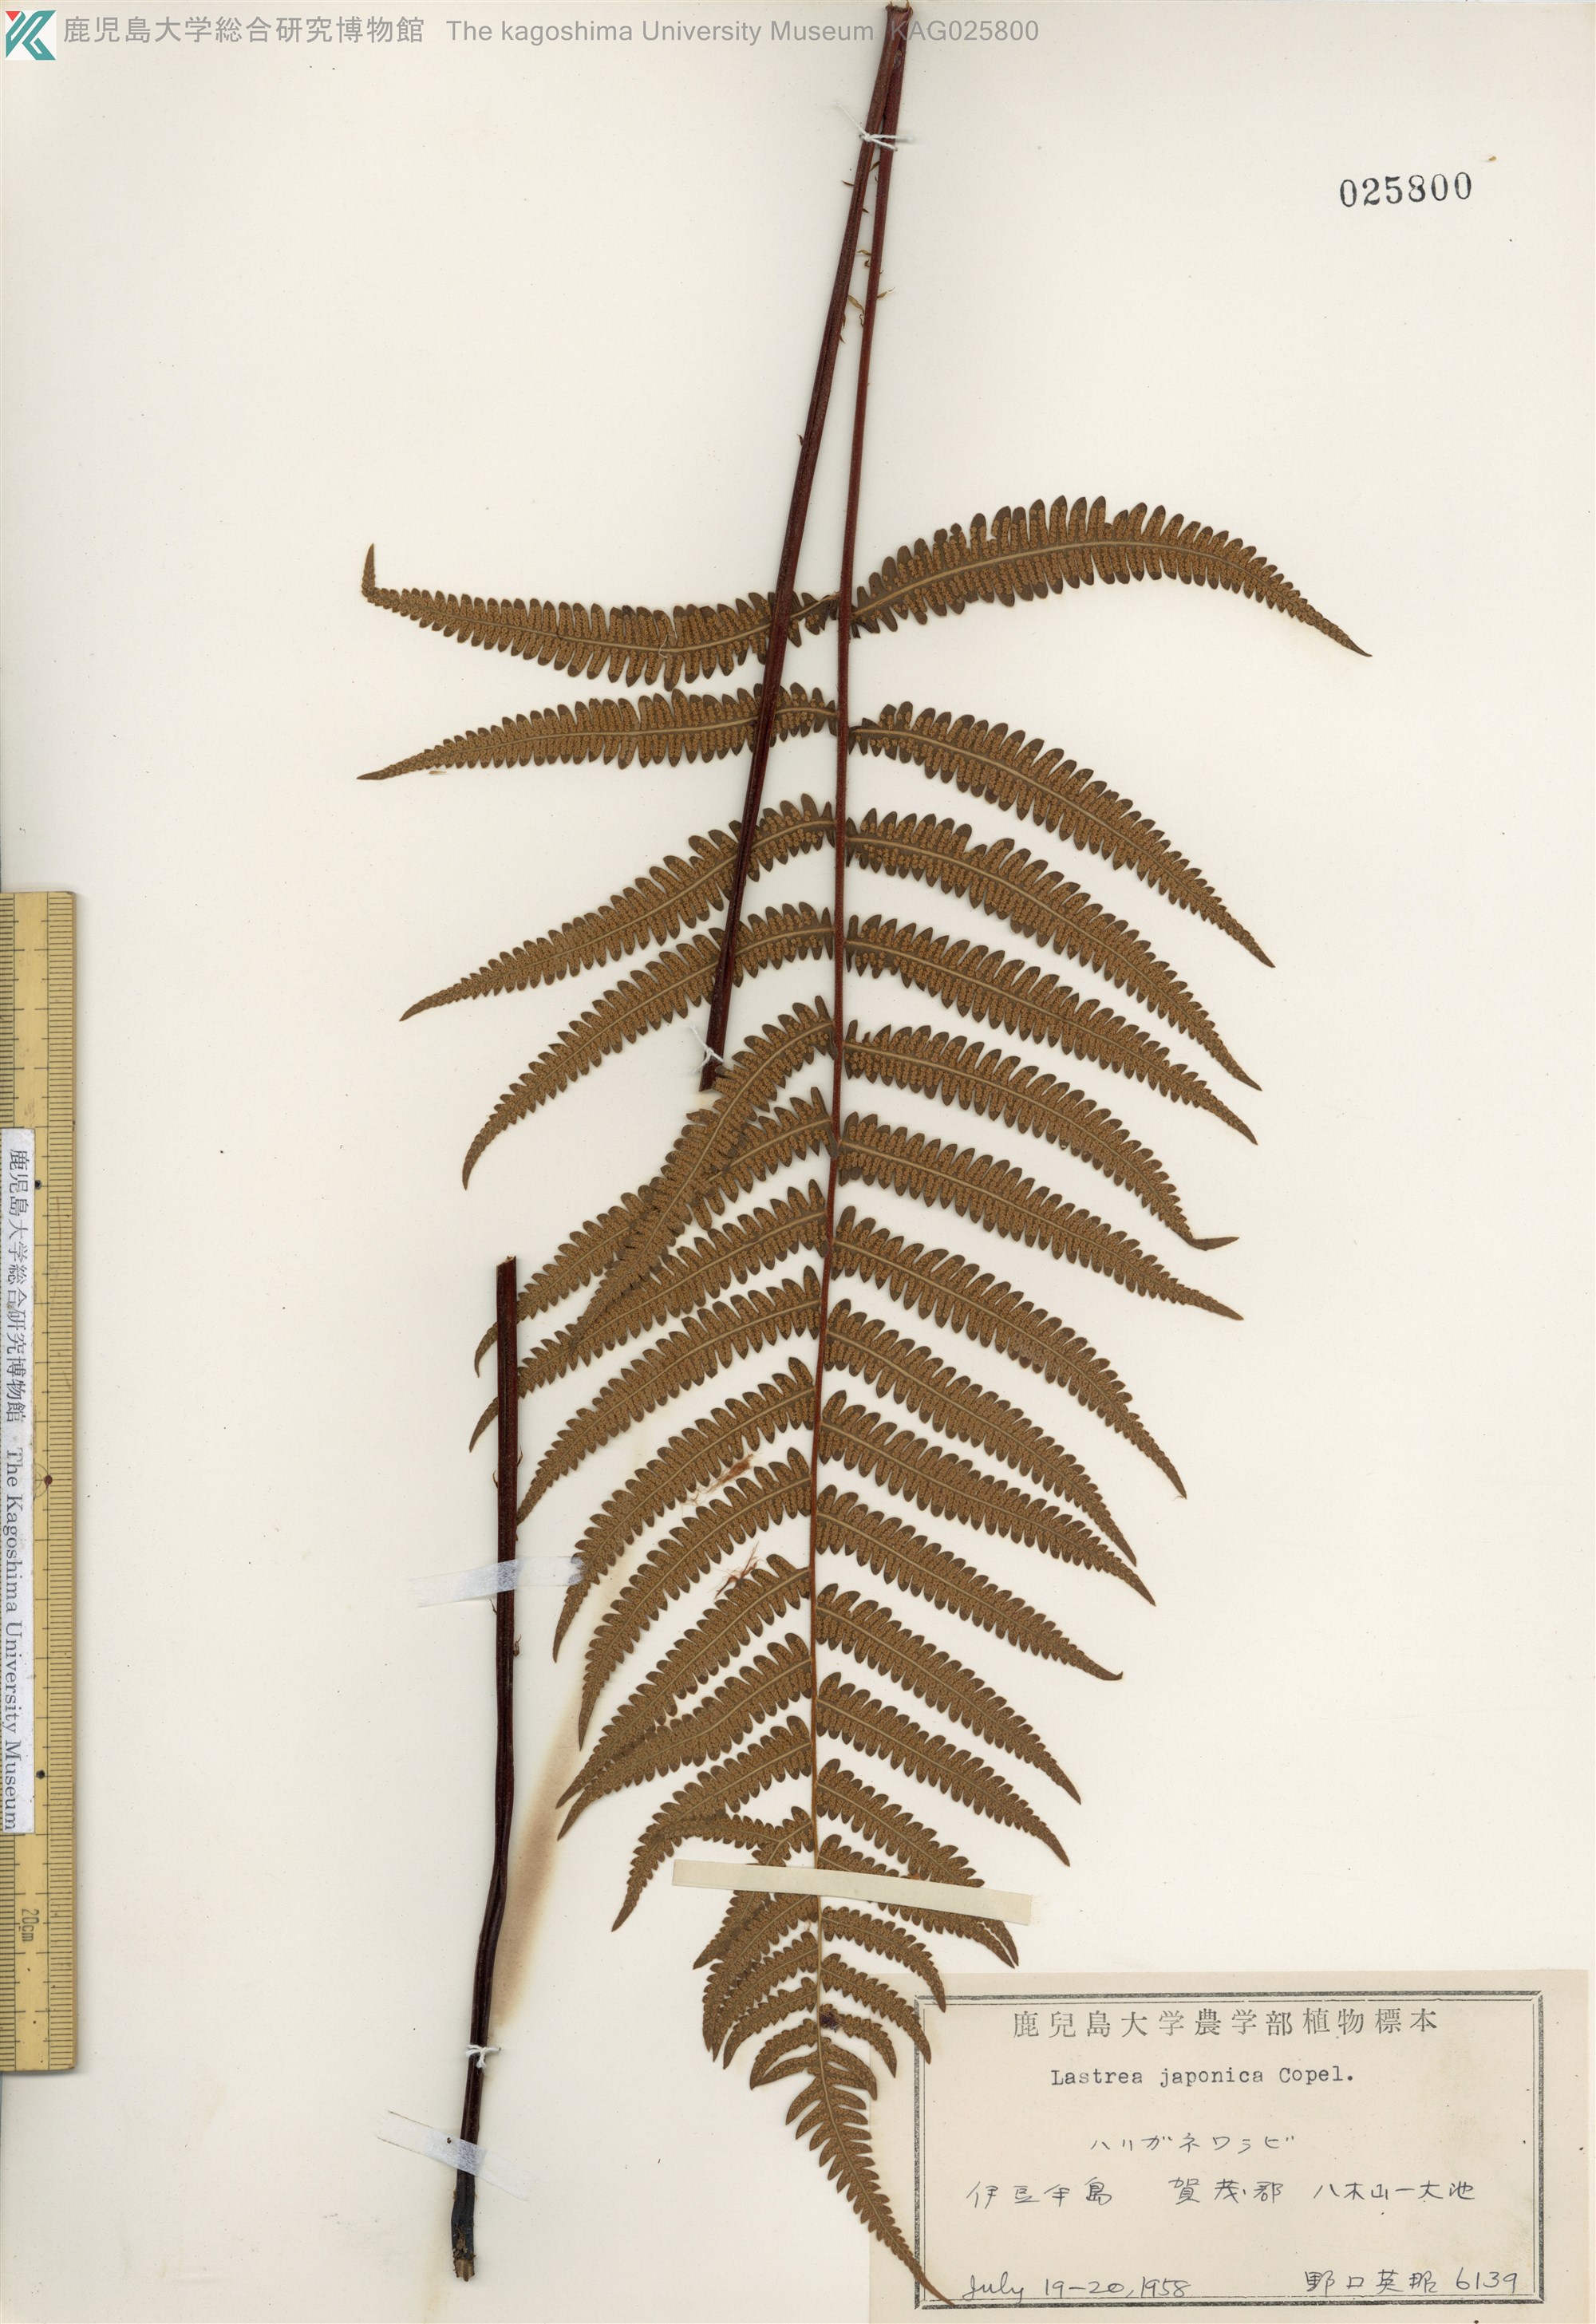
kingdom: Plantae
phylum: Tracheophyta
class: Polypodiopsida
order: Polypodiales
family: Thelypteridaceae
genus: Coryphopteris
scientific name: Coryphopteris japonica
